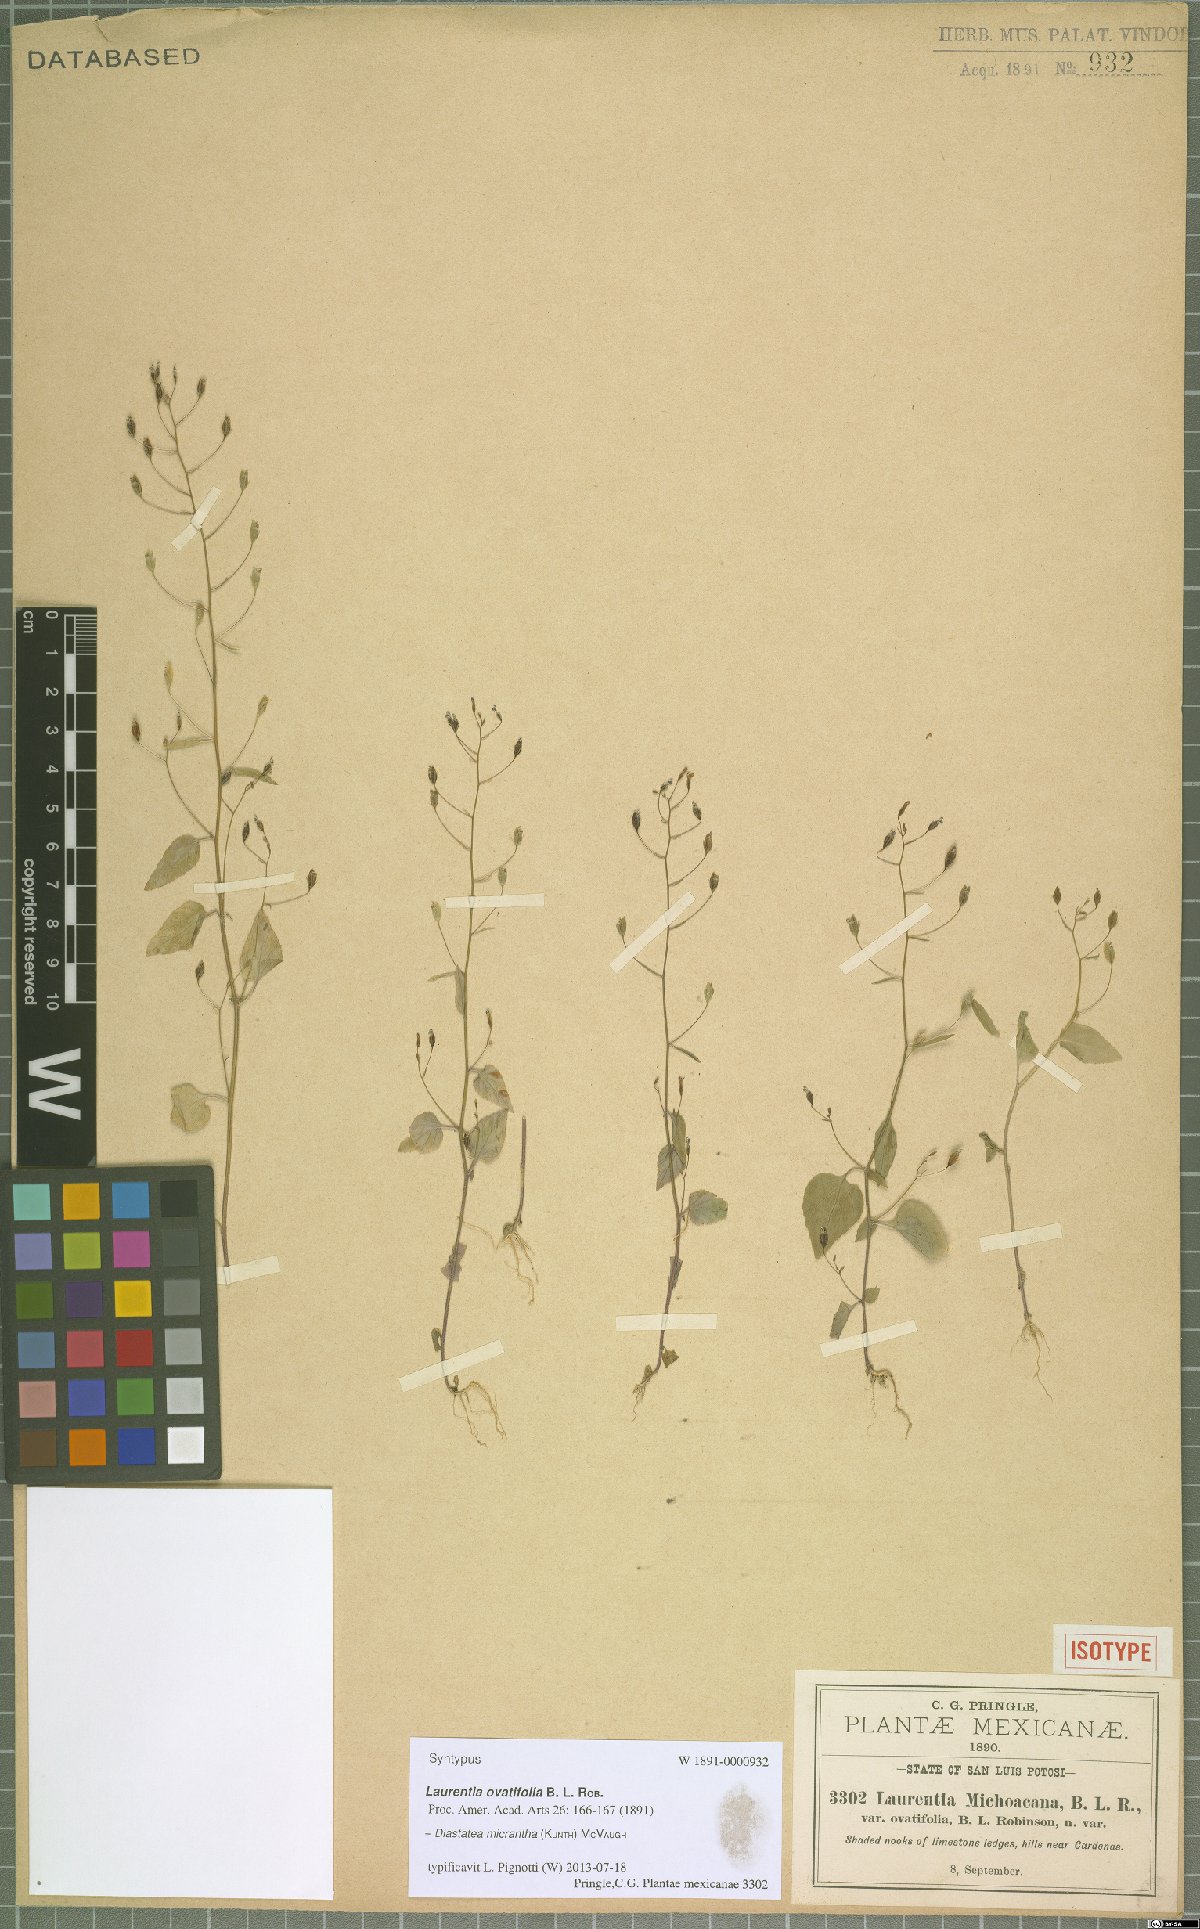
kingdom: Plantae
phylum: Tracheophyta
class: Magnoliopsida
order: Asterales
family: Campanulaceae
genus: Diastatea
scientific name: Diastatea micrantha
